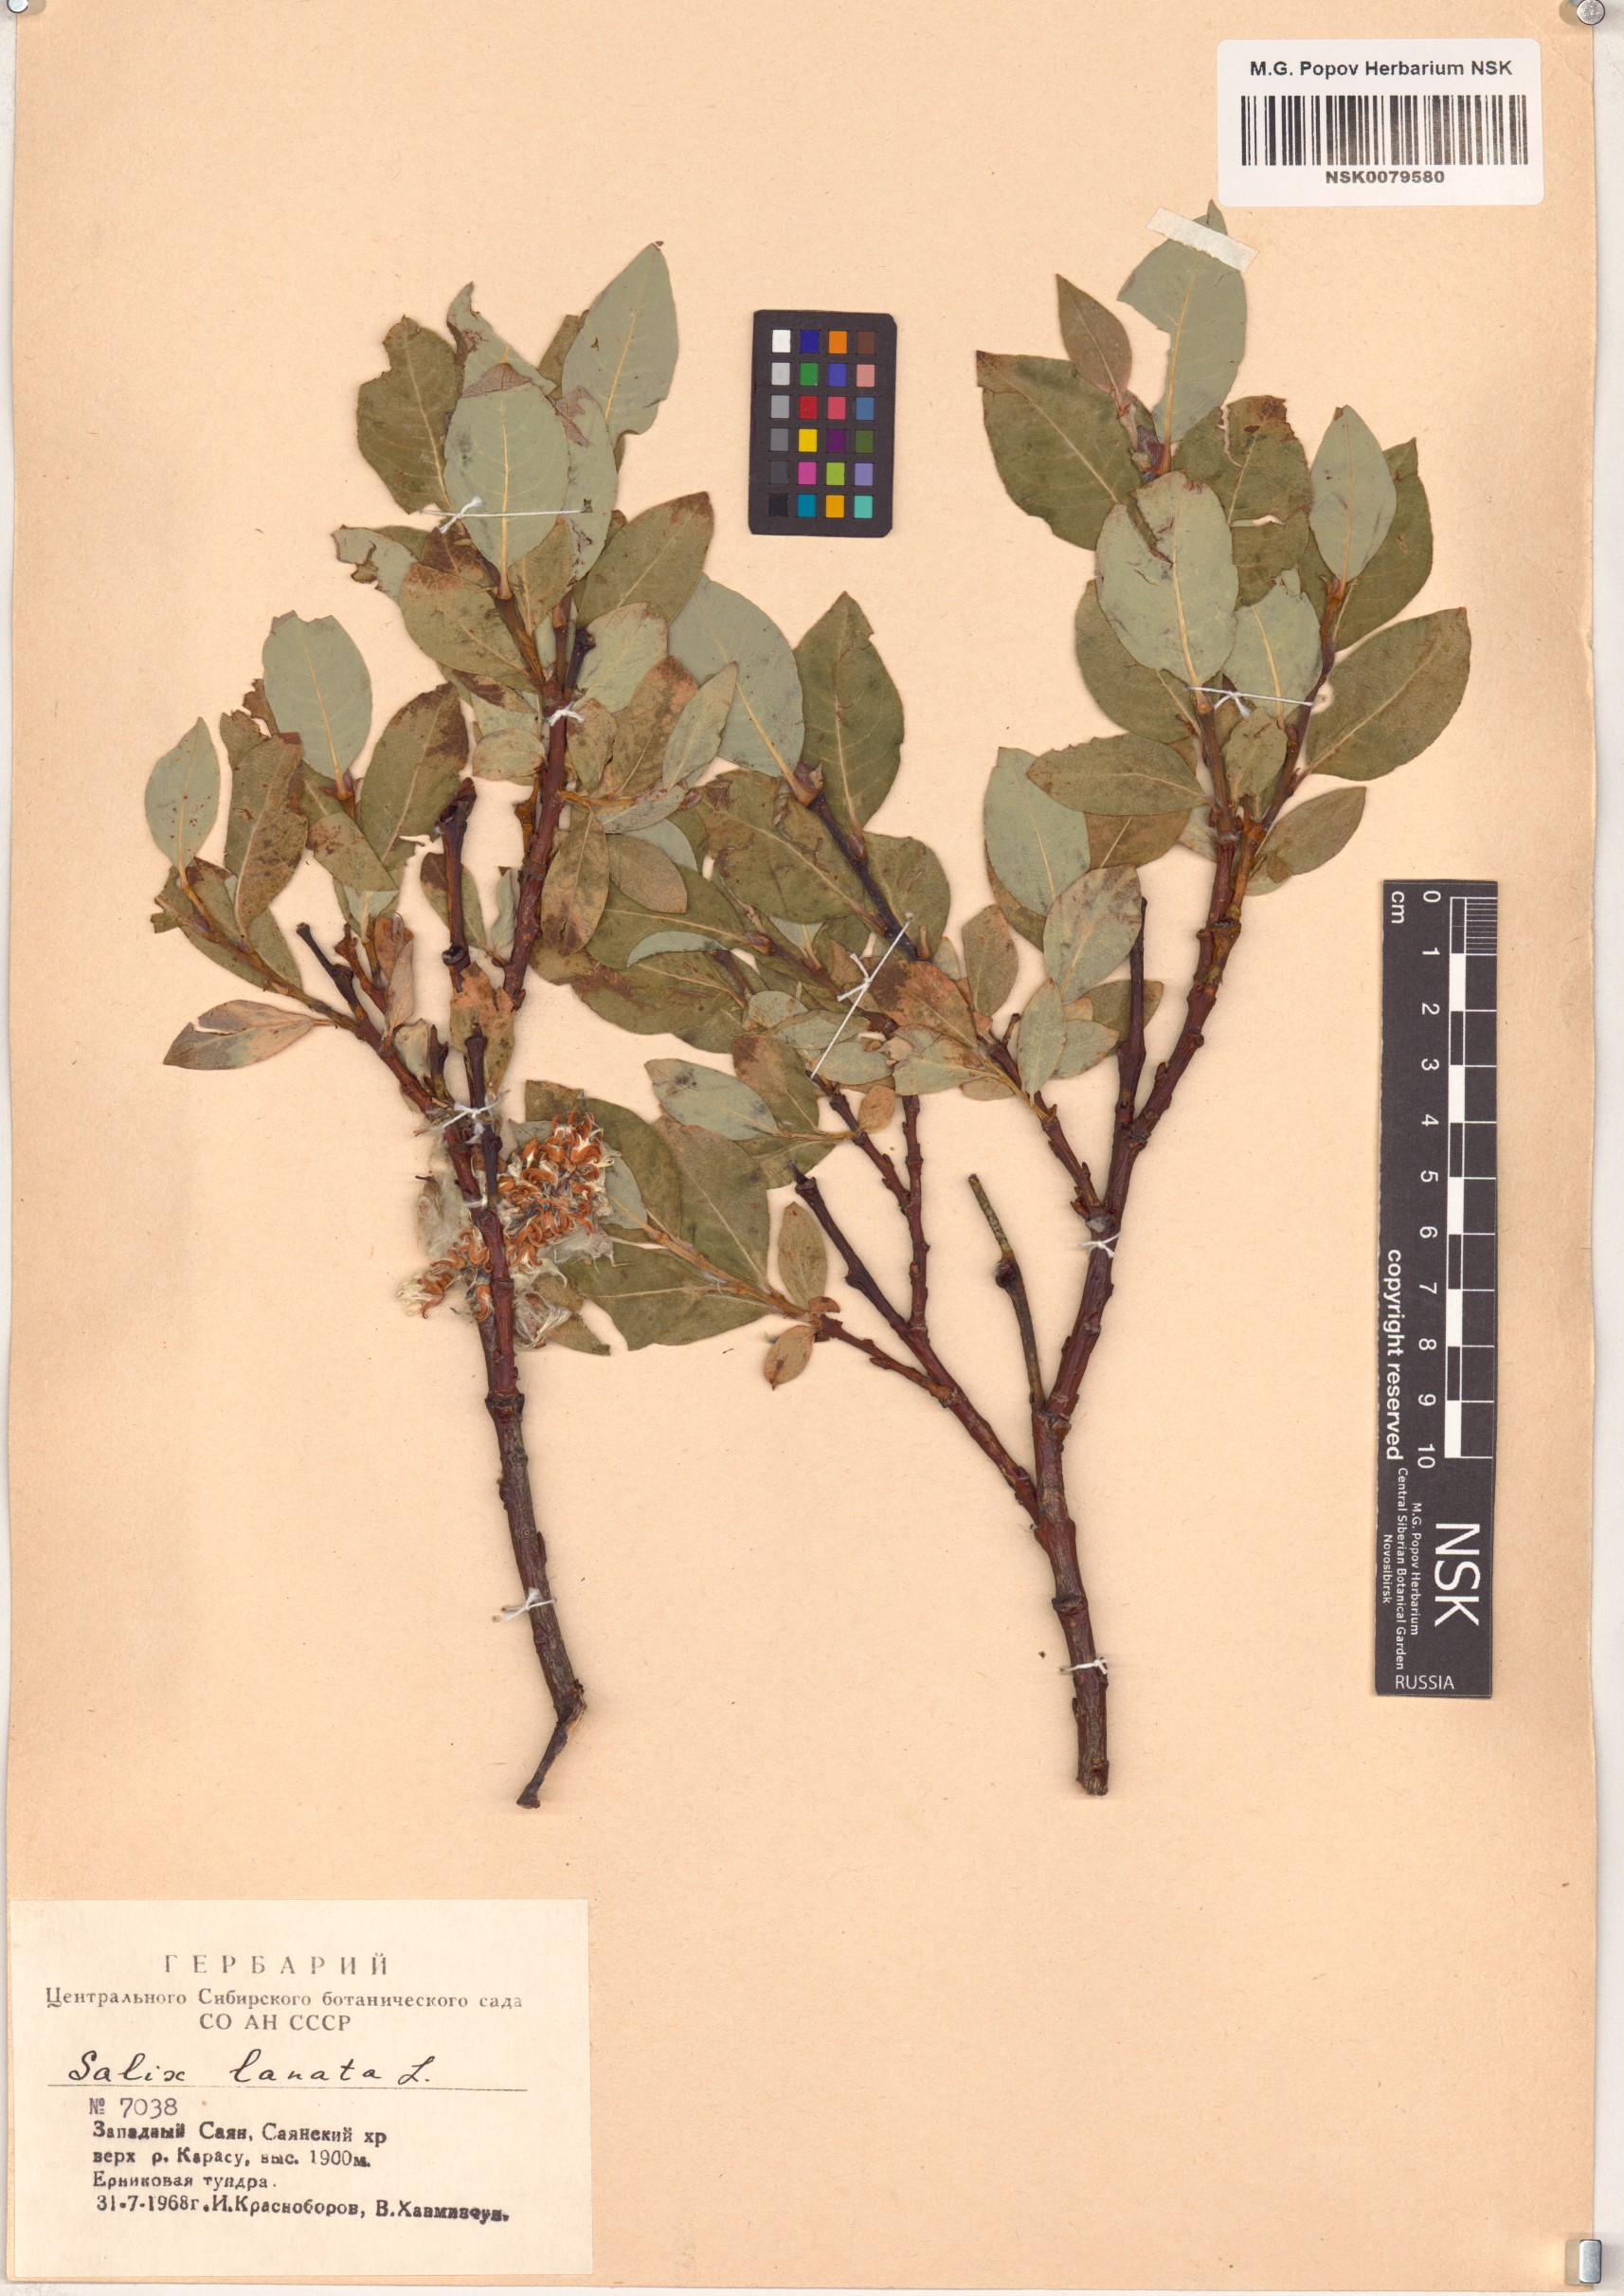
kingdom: Plantae
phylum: Tracheophyta
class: Magnoliopsida
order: Malpighiales
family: Salicaceae
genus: Salix
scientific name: Salix lanata
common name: Woolly willow
